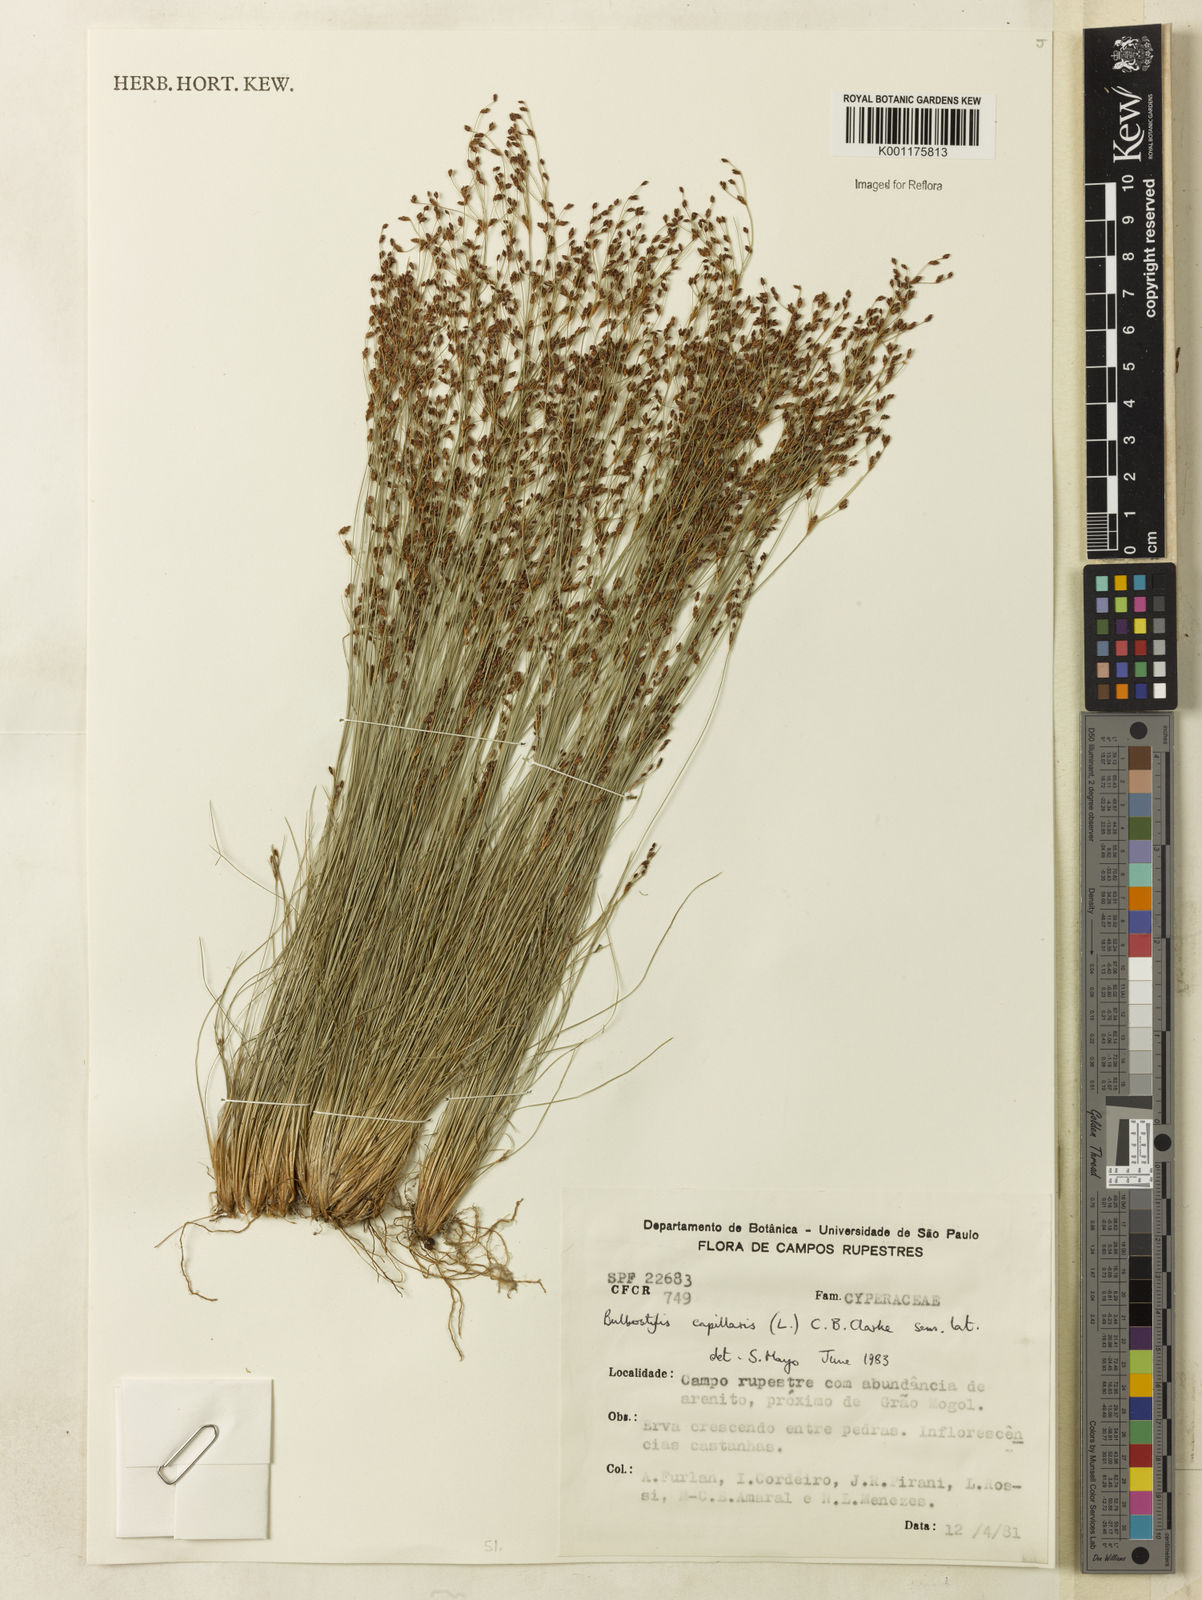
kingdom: Plantae
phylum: Tracheophyta
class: Liliopsida
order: Poales
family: Cyperaceae
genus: Bulbostylis
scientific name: Bulbostylis capillaris
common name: Densetuft hairsedge
